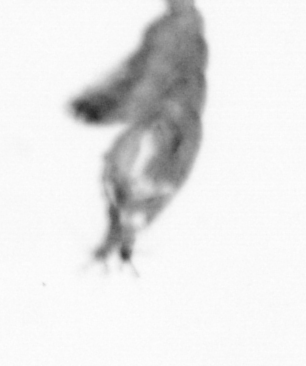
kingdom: Animalia
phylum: Annelida
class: Polychaeta
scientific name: Polychaeta
